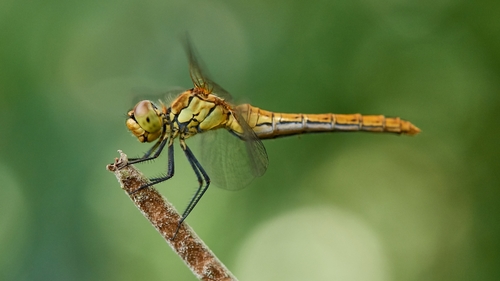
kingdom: Animalia
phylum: Arthropoda
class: Insecta
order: Odonata
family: Libellulidae
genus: Sympetrum
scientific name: Sympetrum sanguineum
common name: Ruddy darter
